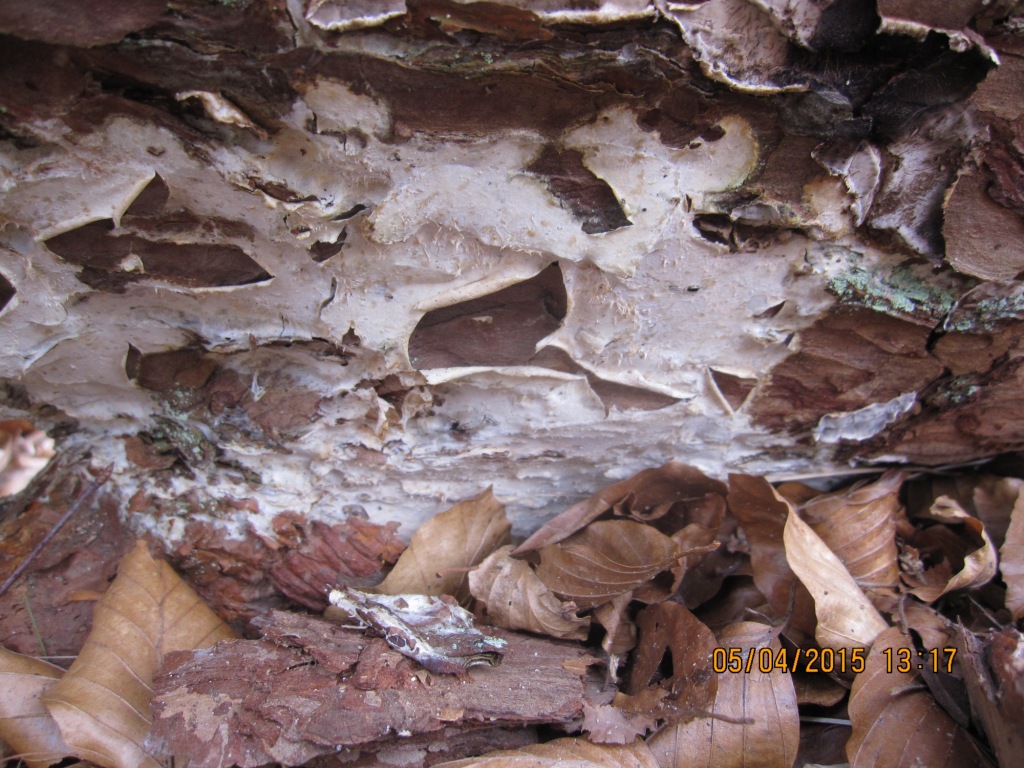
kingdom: Fungi
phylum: Basidiomycota
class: Agaricomycetes
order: Polyporales
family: Phanerochaetaceae
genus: Phlebiopsis
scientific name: Phlebiopsis gigantea
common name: kæmpebarksvamp
